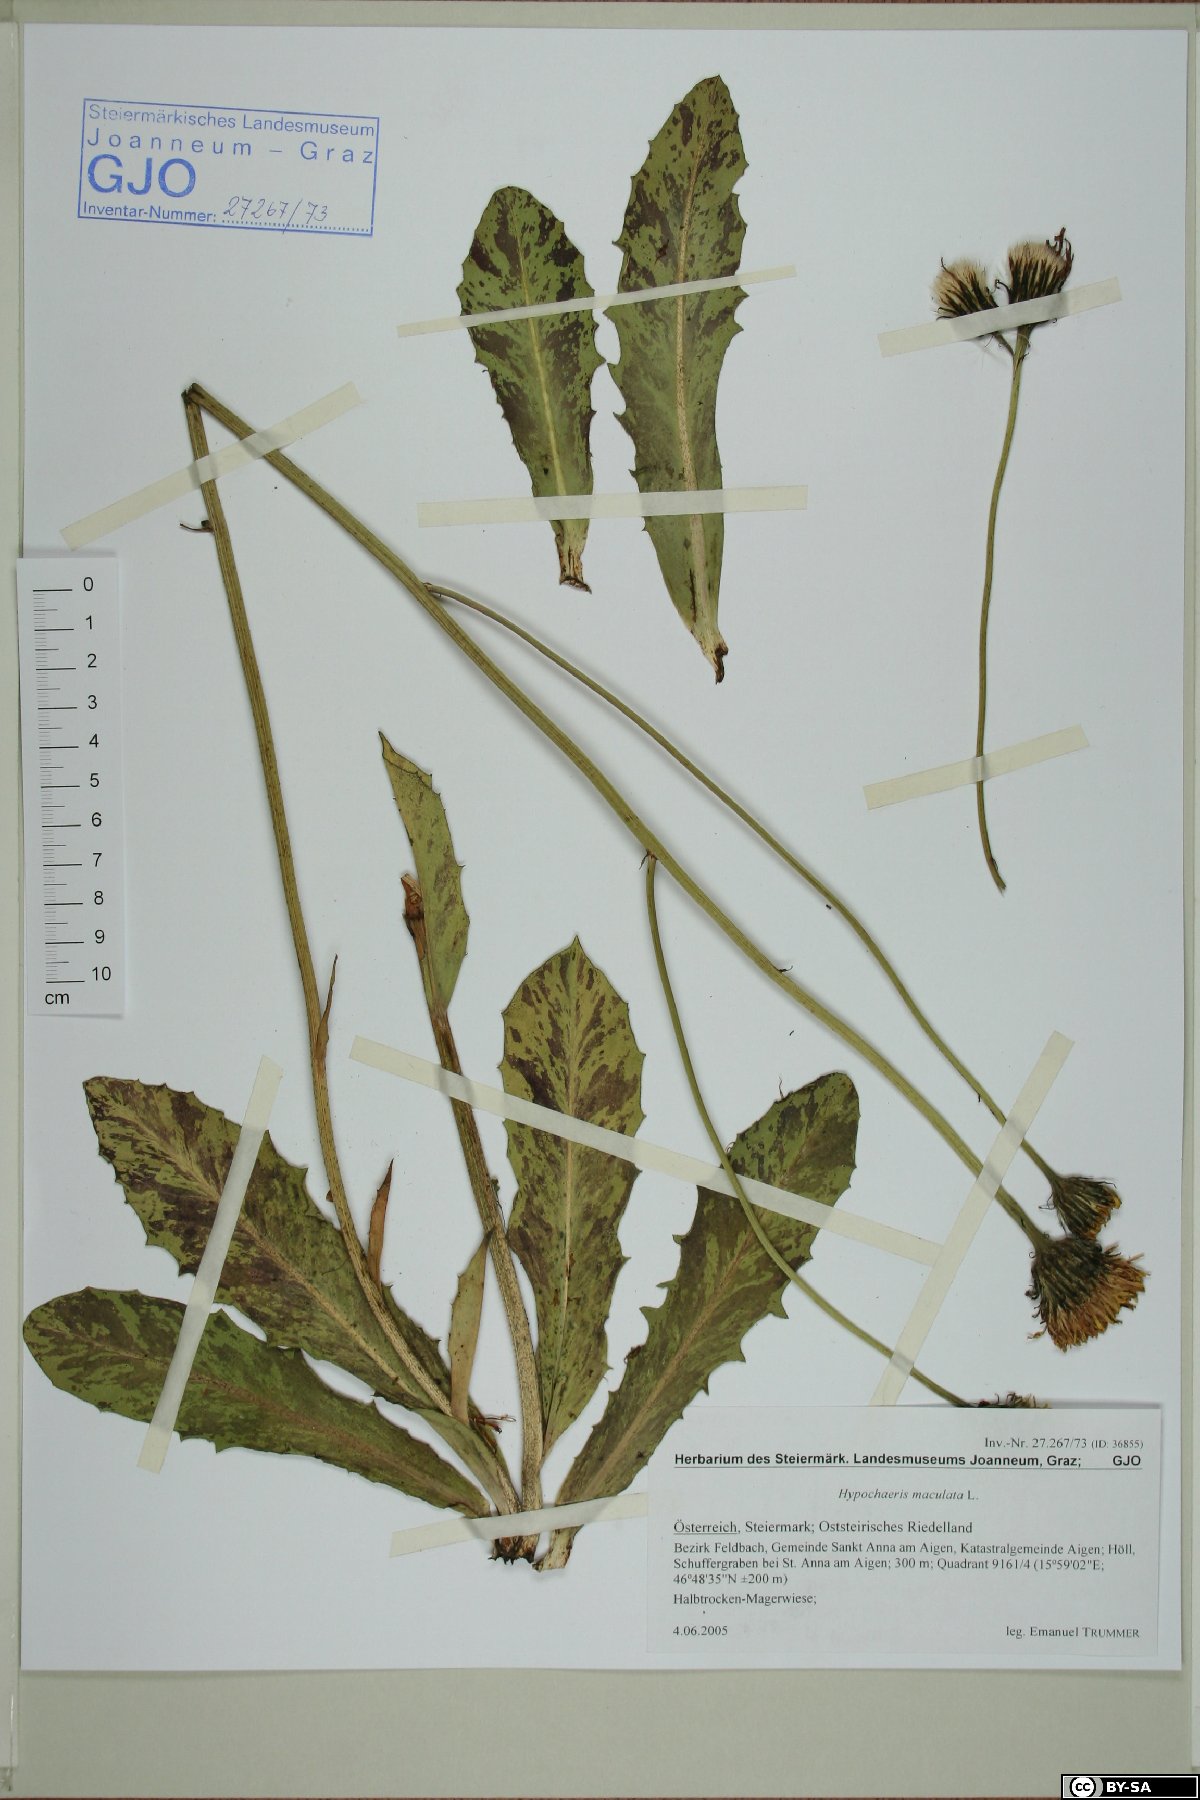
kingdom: Plantae
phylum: Tracheophyta
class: Magnoliopsida
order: Asterales
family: Asteraceae
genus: Trommsdorffia
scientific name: Trommsdorffia maculata
